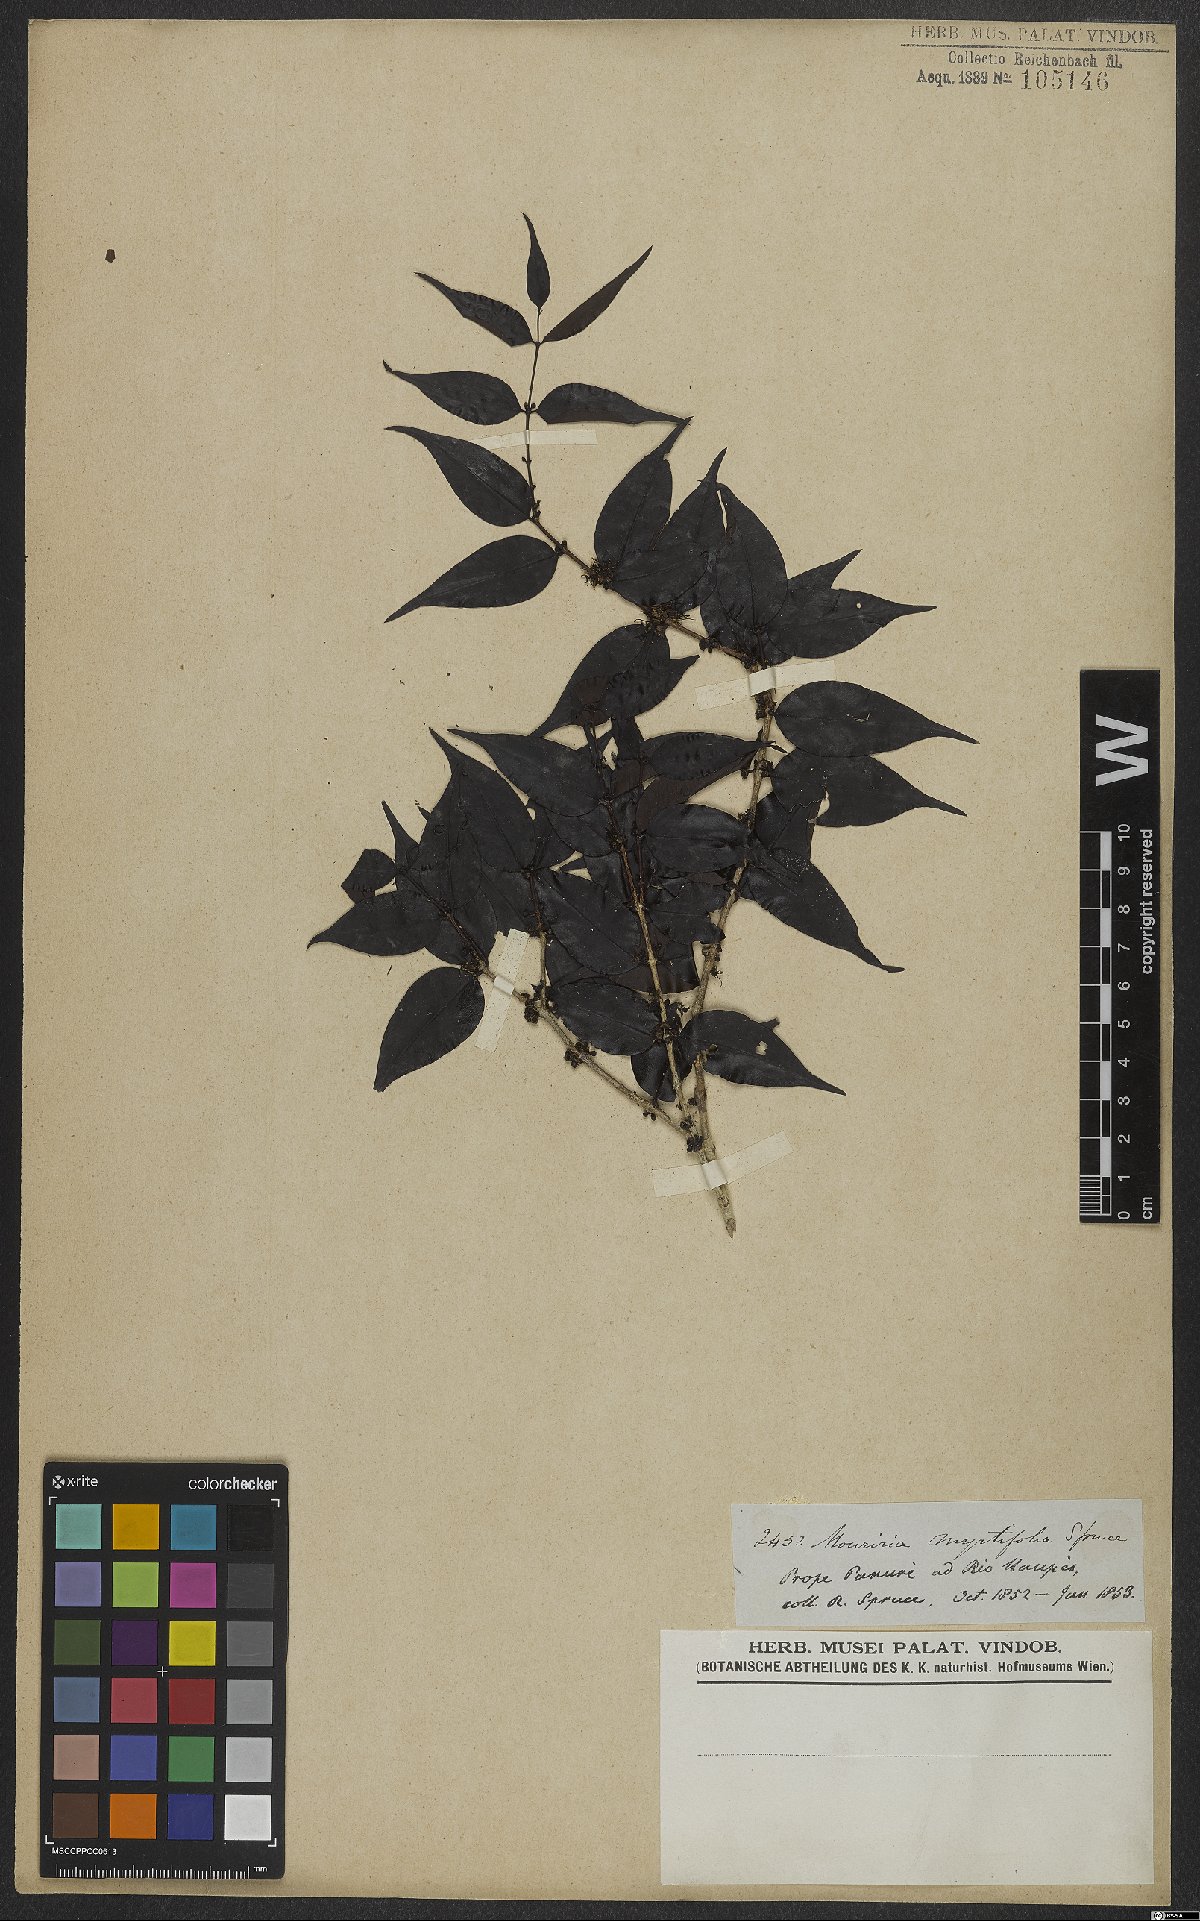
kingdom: Plantae
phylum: Tracheophyta
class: Magnoliopsida
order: Myrtales
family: Melastomataceae
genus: Mouriri
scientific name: Mouriri myrtifolia
